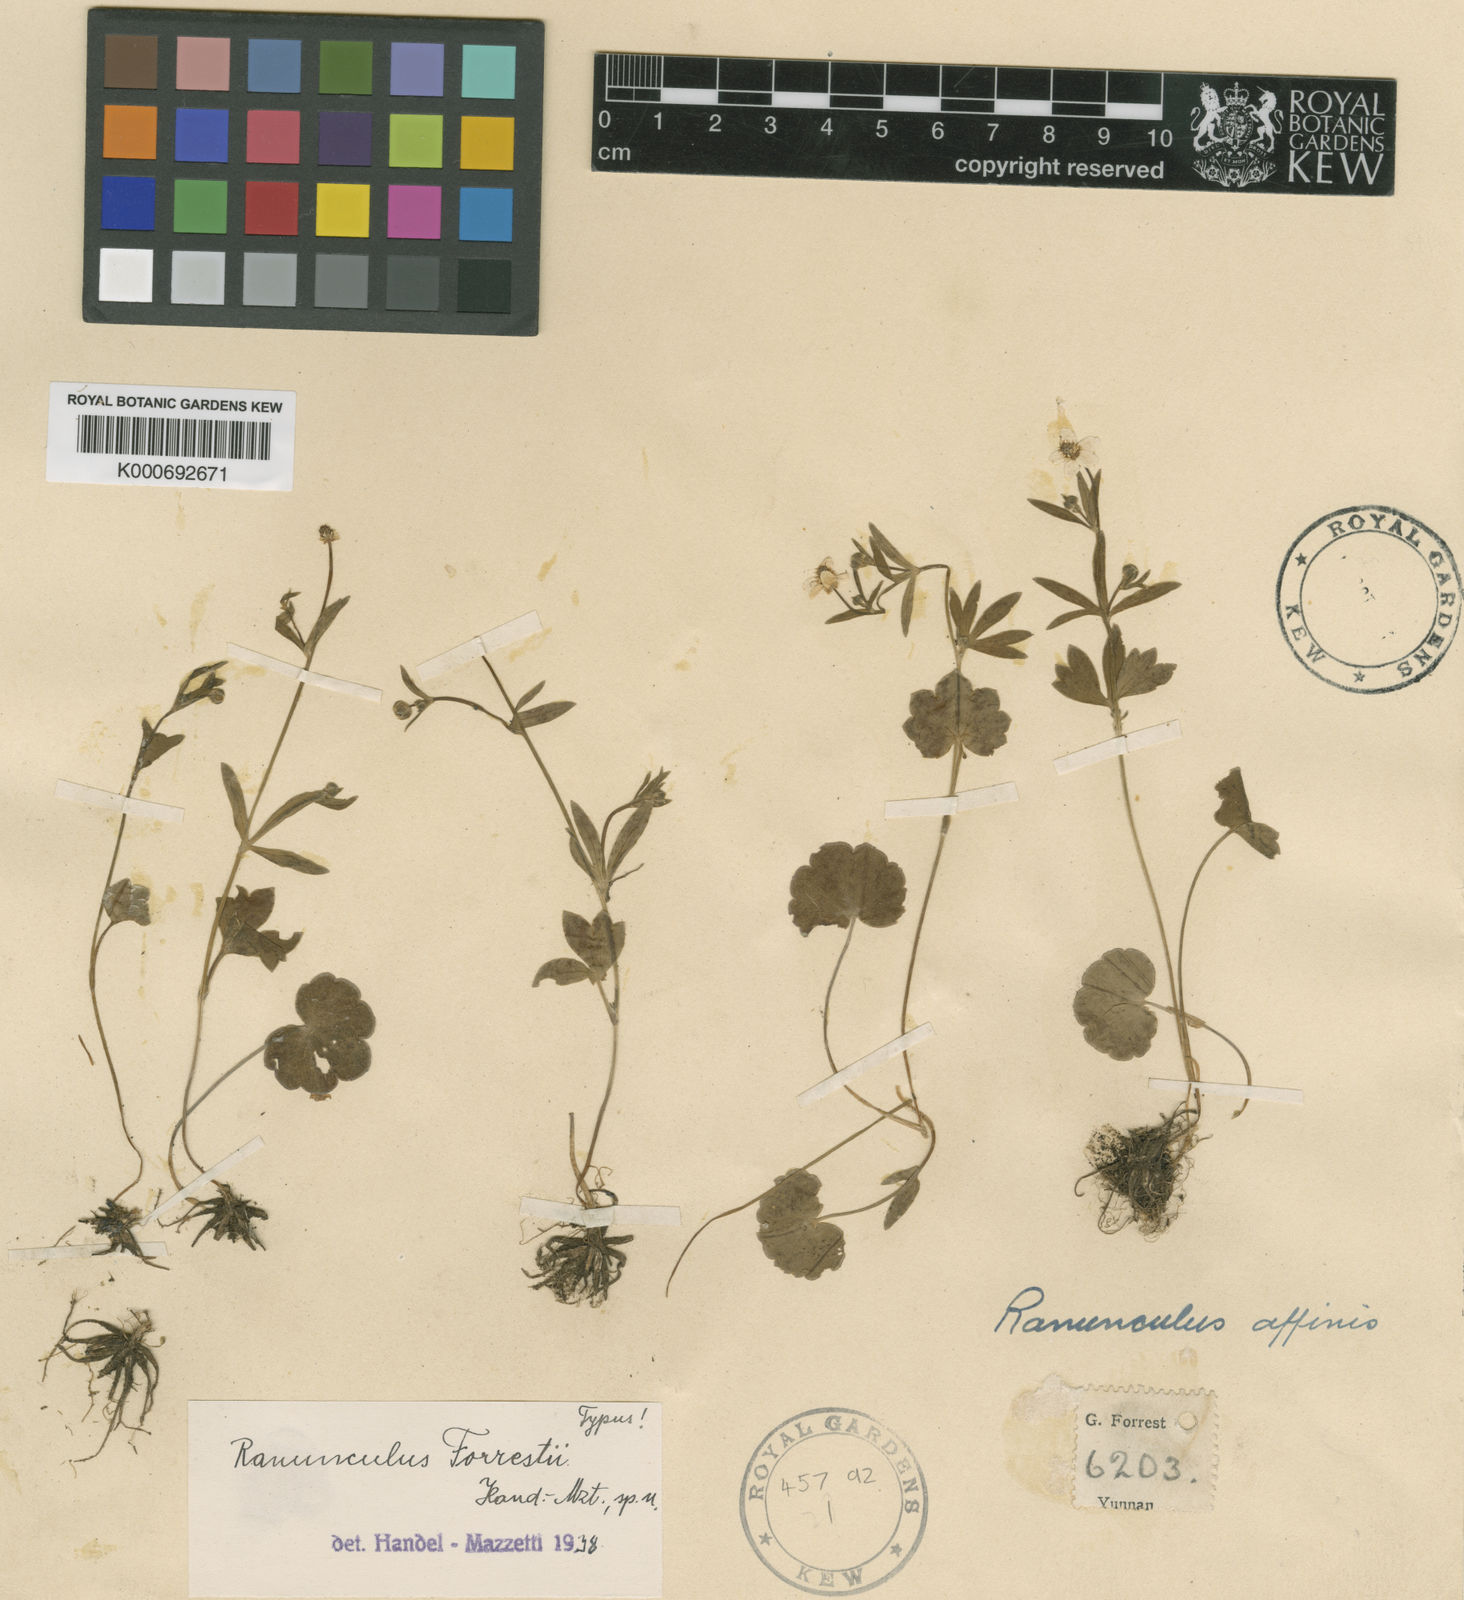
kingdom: Plantae
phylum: Tracheophyta
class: Magnoliopsida
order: Ranunculales
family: Ranunculaceae
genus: Ranunculus
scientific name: Ranunculus
